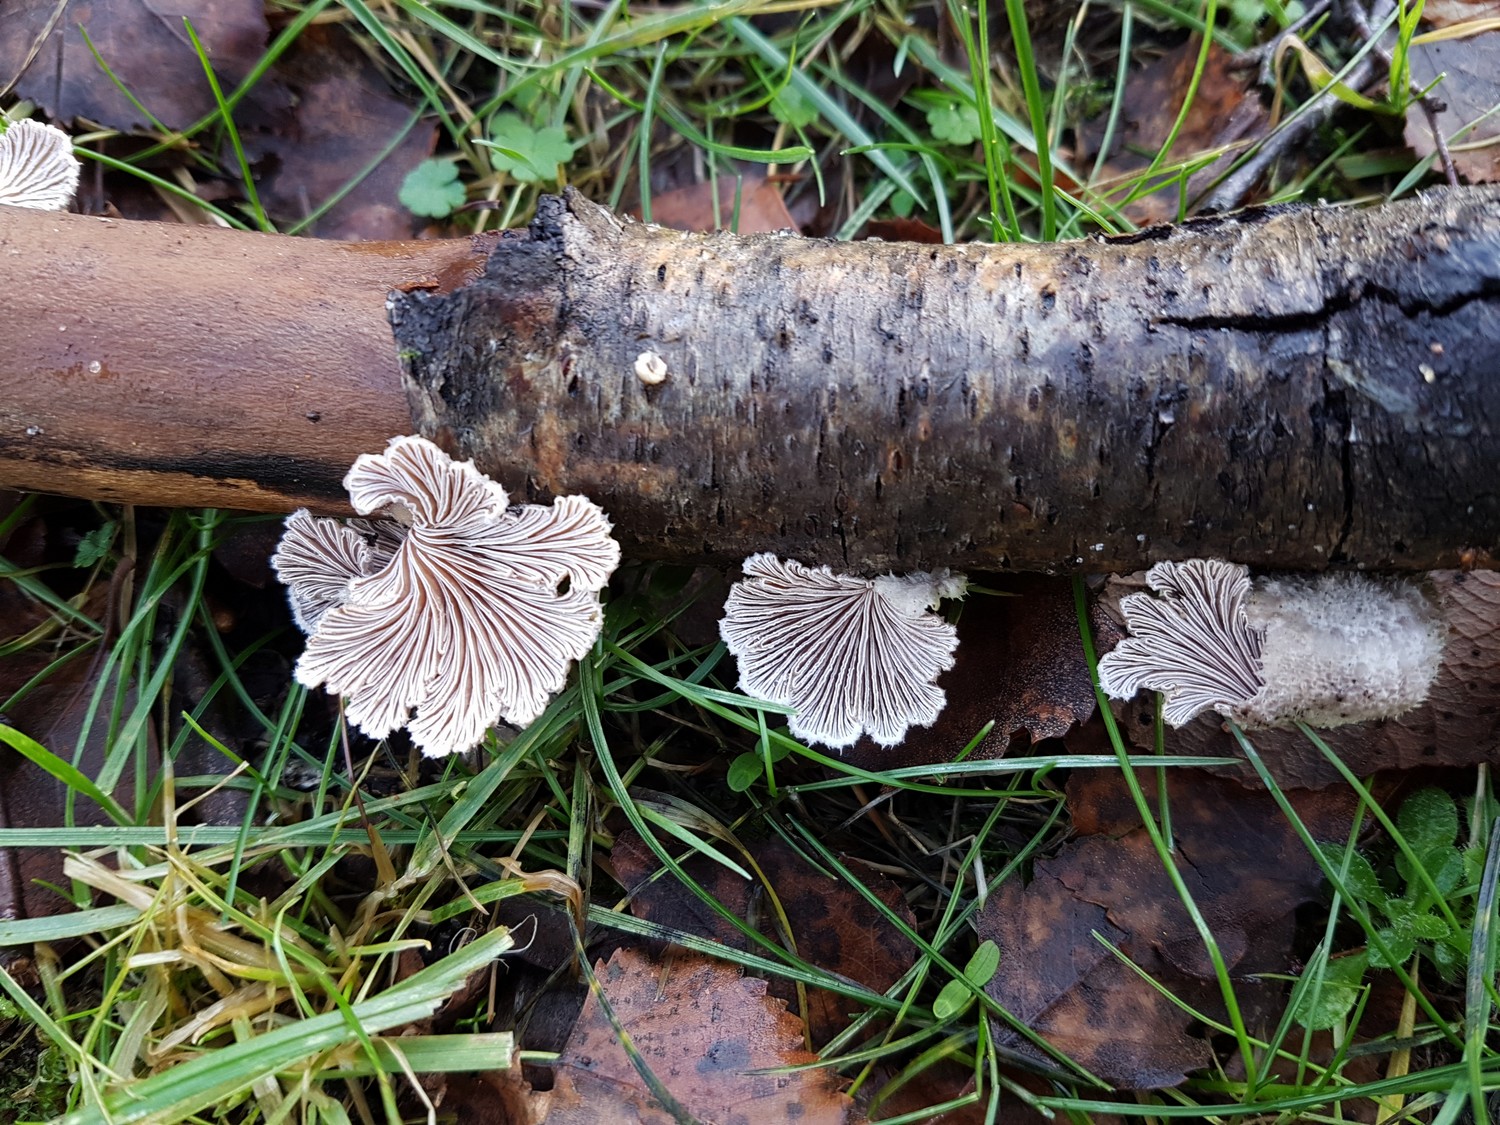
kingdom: Fungi
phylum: Basidiomycota
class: Agaricomycetes
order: Agaricales
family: Schizophyllaceae
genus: Schizophyllum
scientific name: Schizophyllum commune
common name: kløvblad
